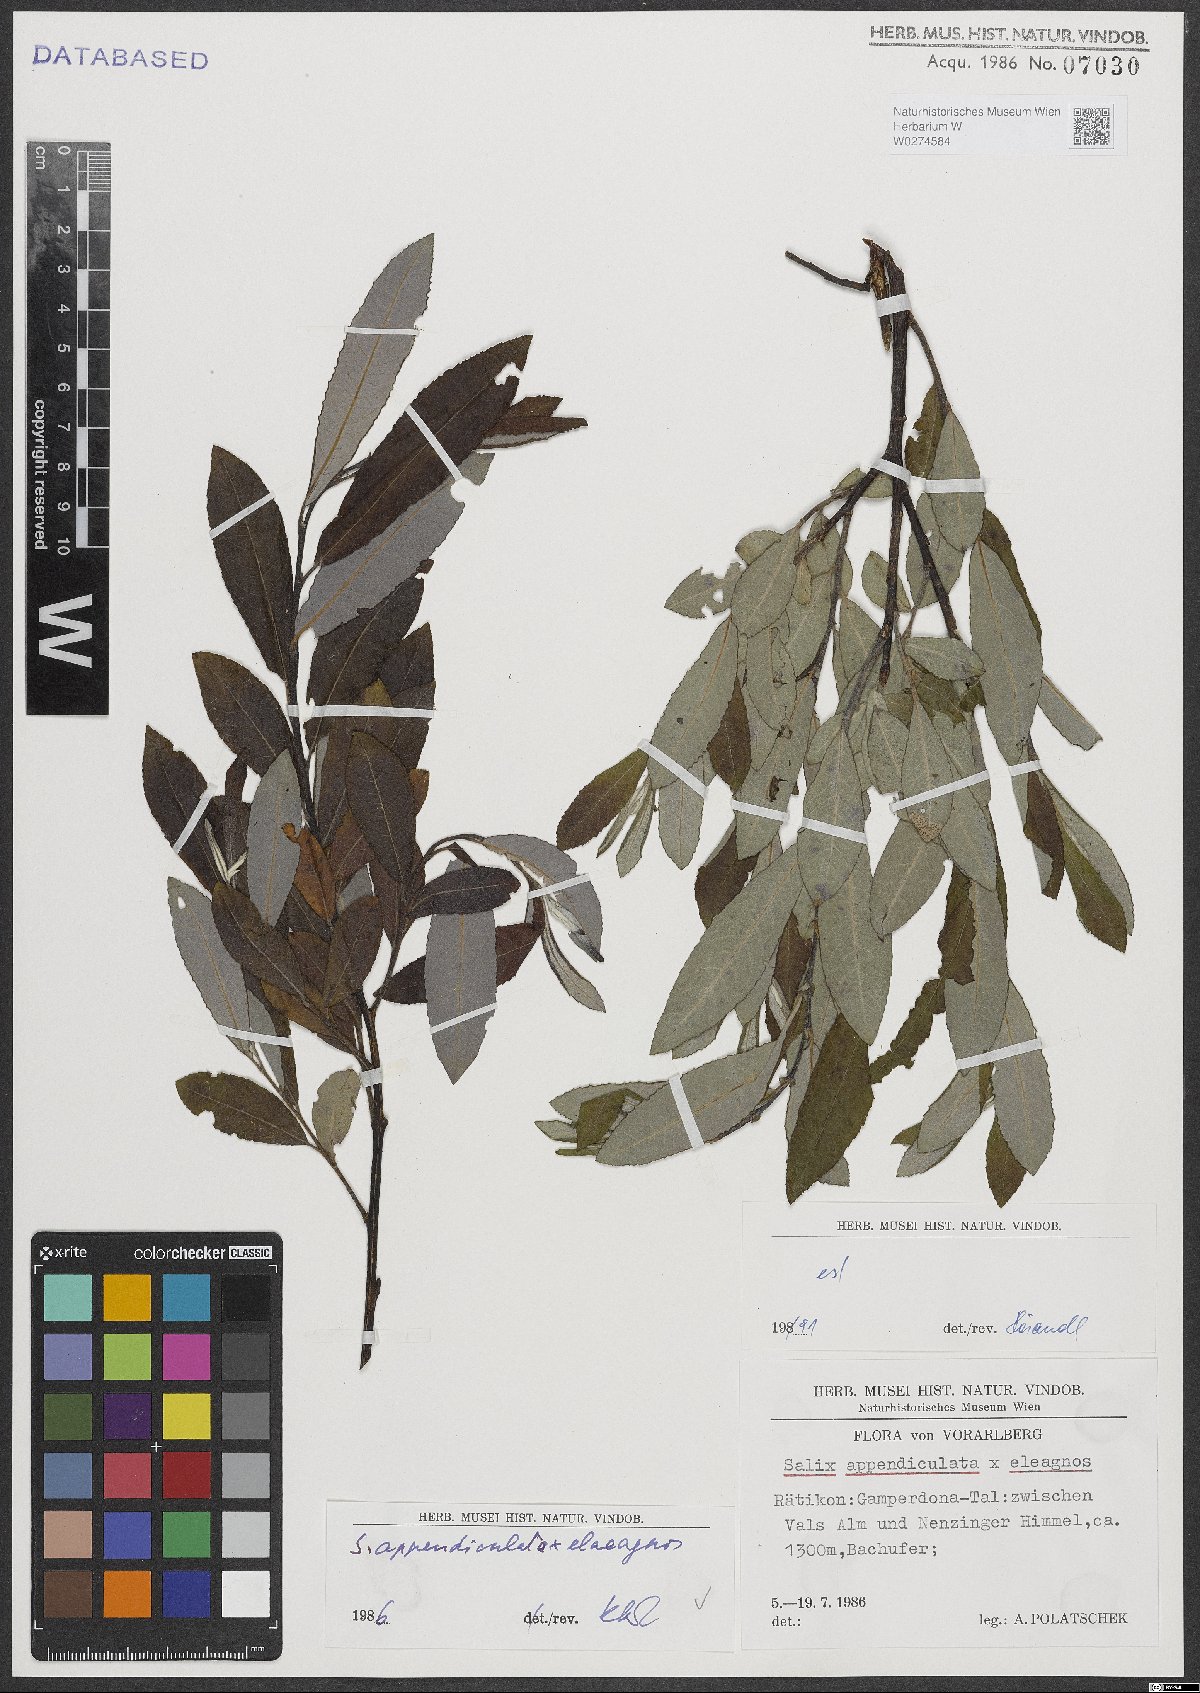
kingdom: Plantae
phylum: Tracheophyta
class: Magnoliopsida
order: Malpighiales
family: Salicaceae
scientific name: Salicaceae
